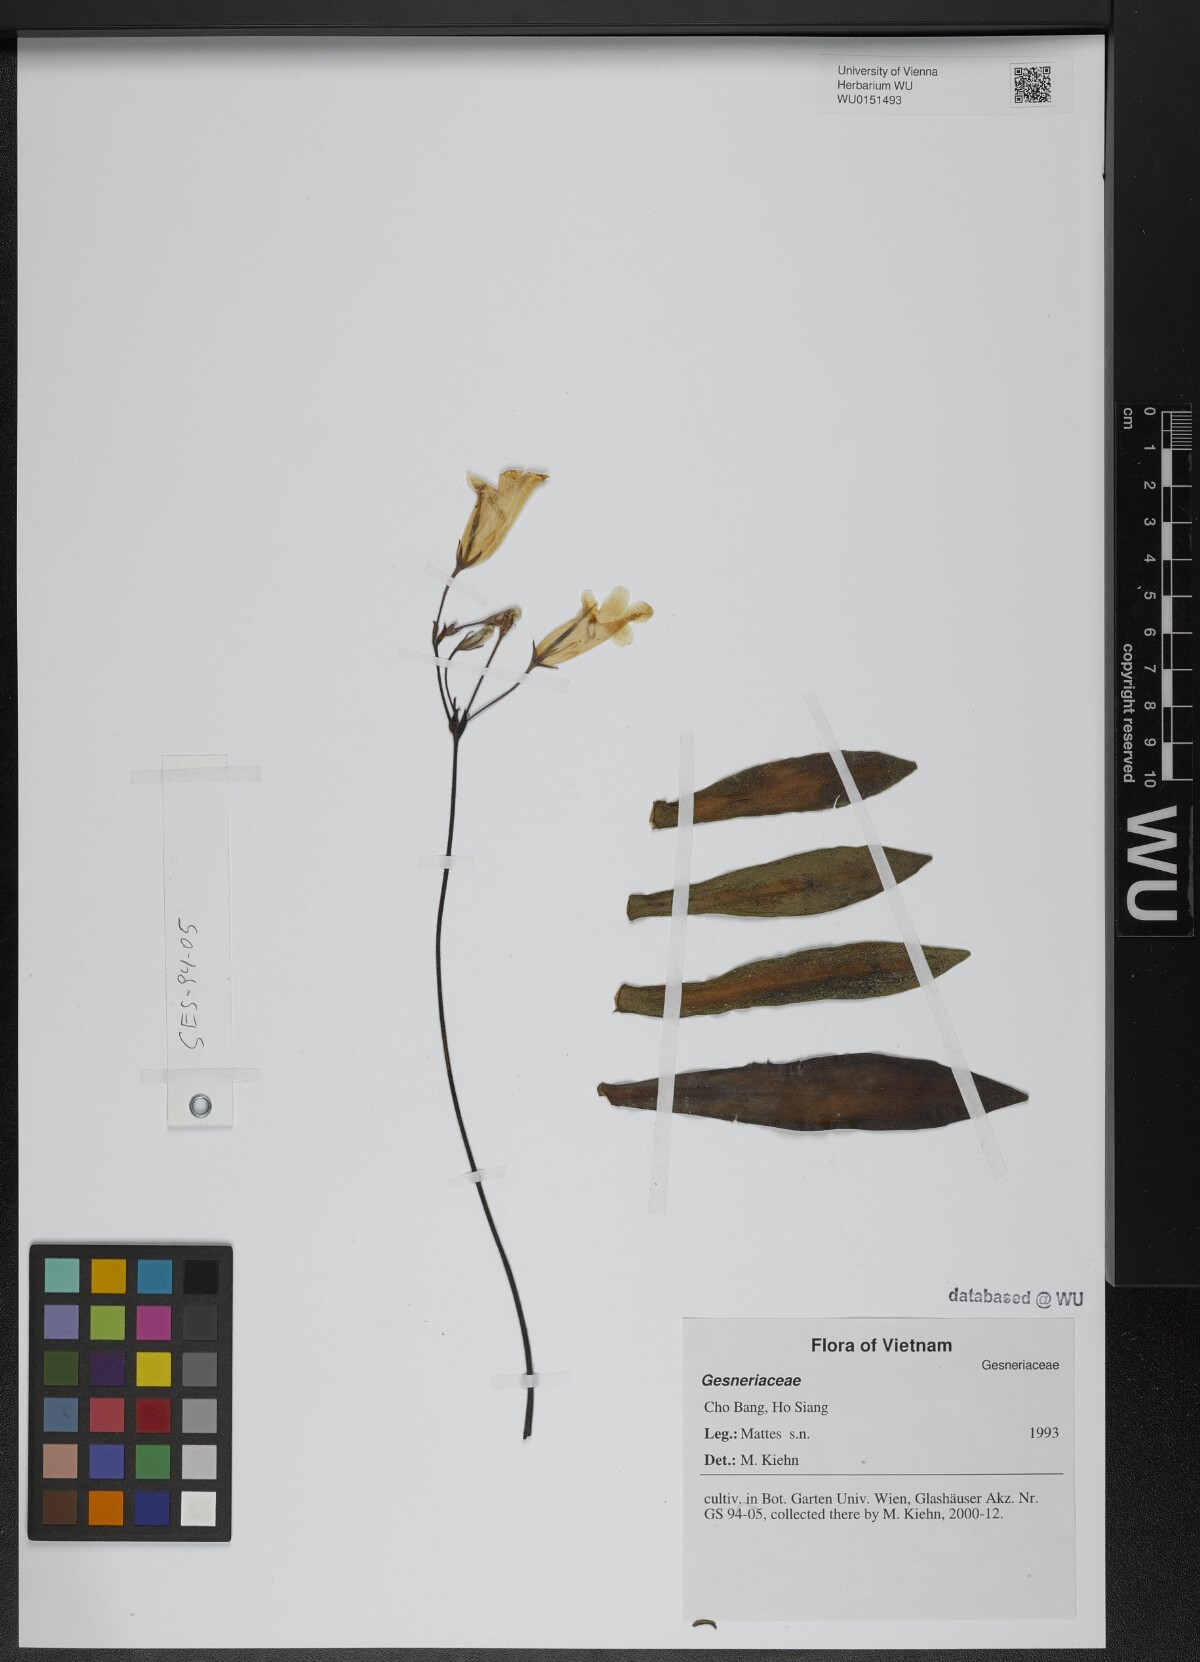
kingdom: Plantae
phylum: Tracheophyta
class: Magnoliopsida
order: Lamiales
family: Gesneriaceae
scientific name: Gesneriaceae
